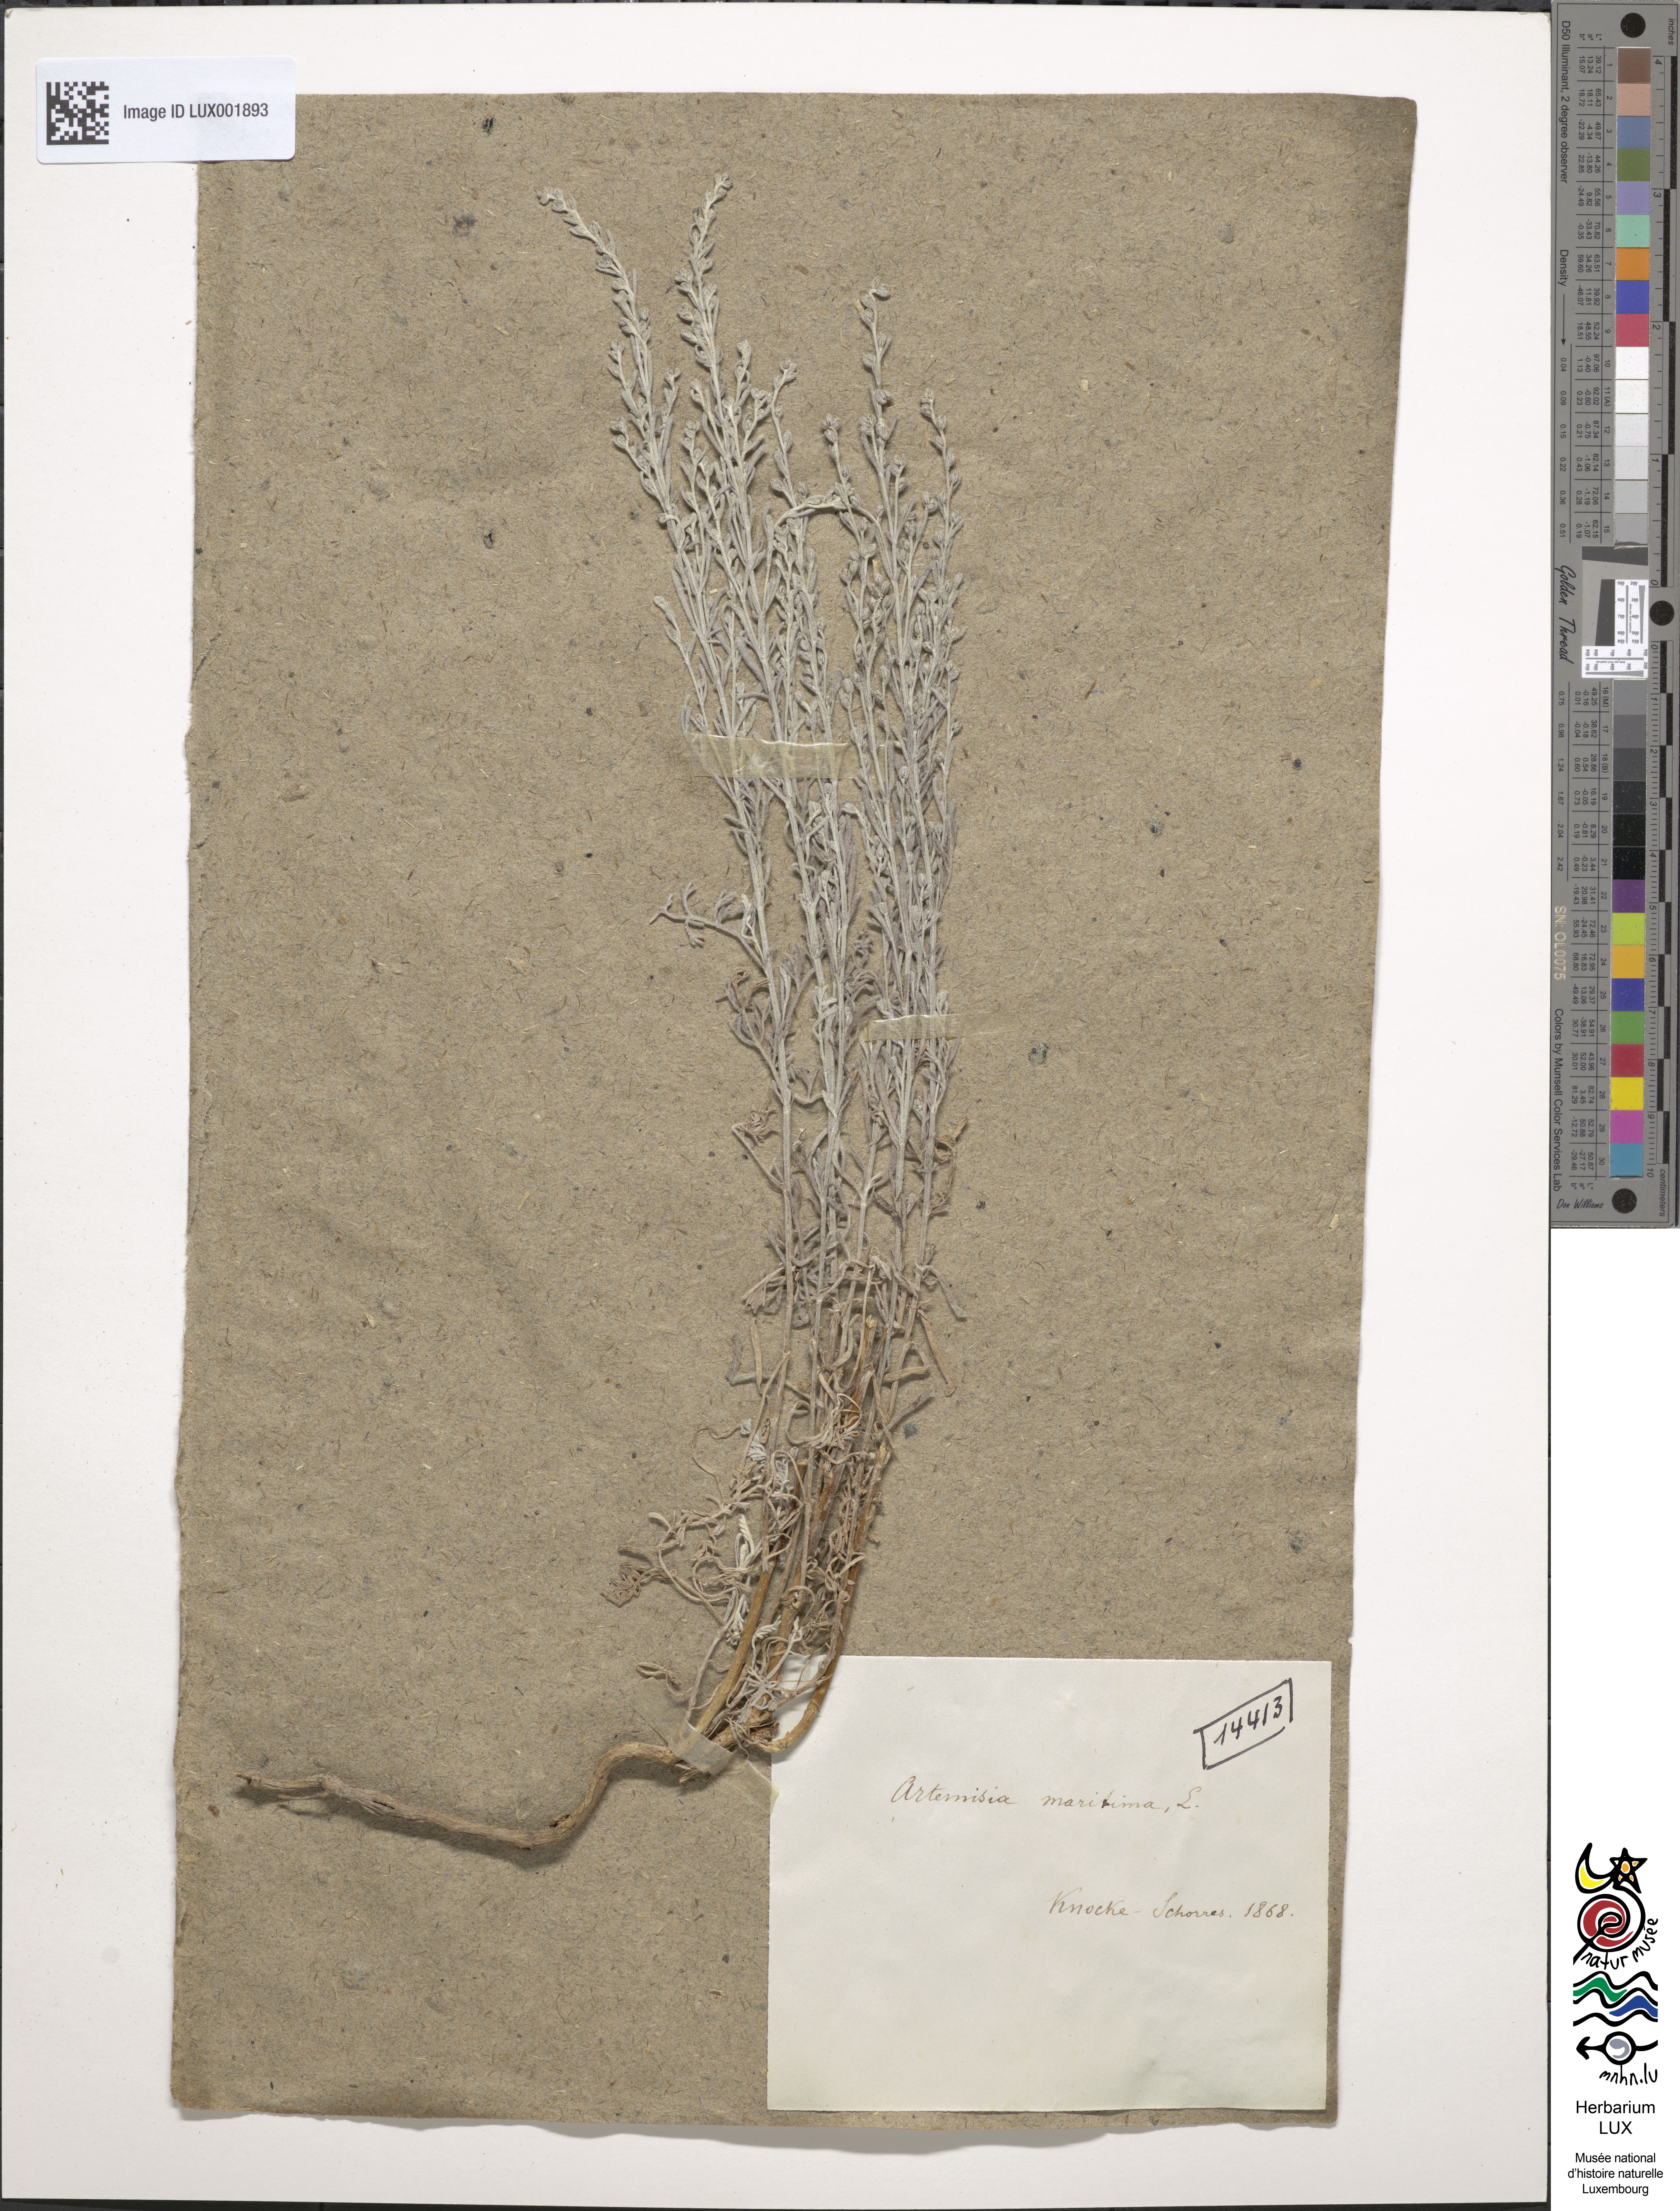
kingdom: Plantae
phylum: Tracheophyta
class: Magnoliopsida
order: Asterales
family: Asteraceae
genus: Artemisia
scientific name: Artemisia maritima
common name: Wormseed
